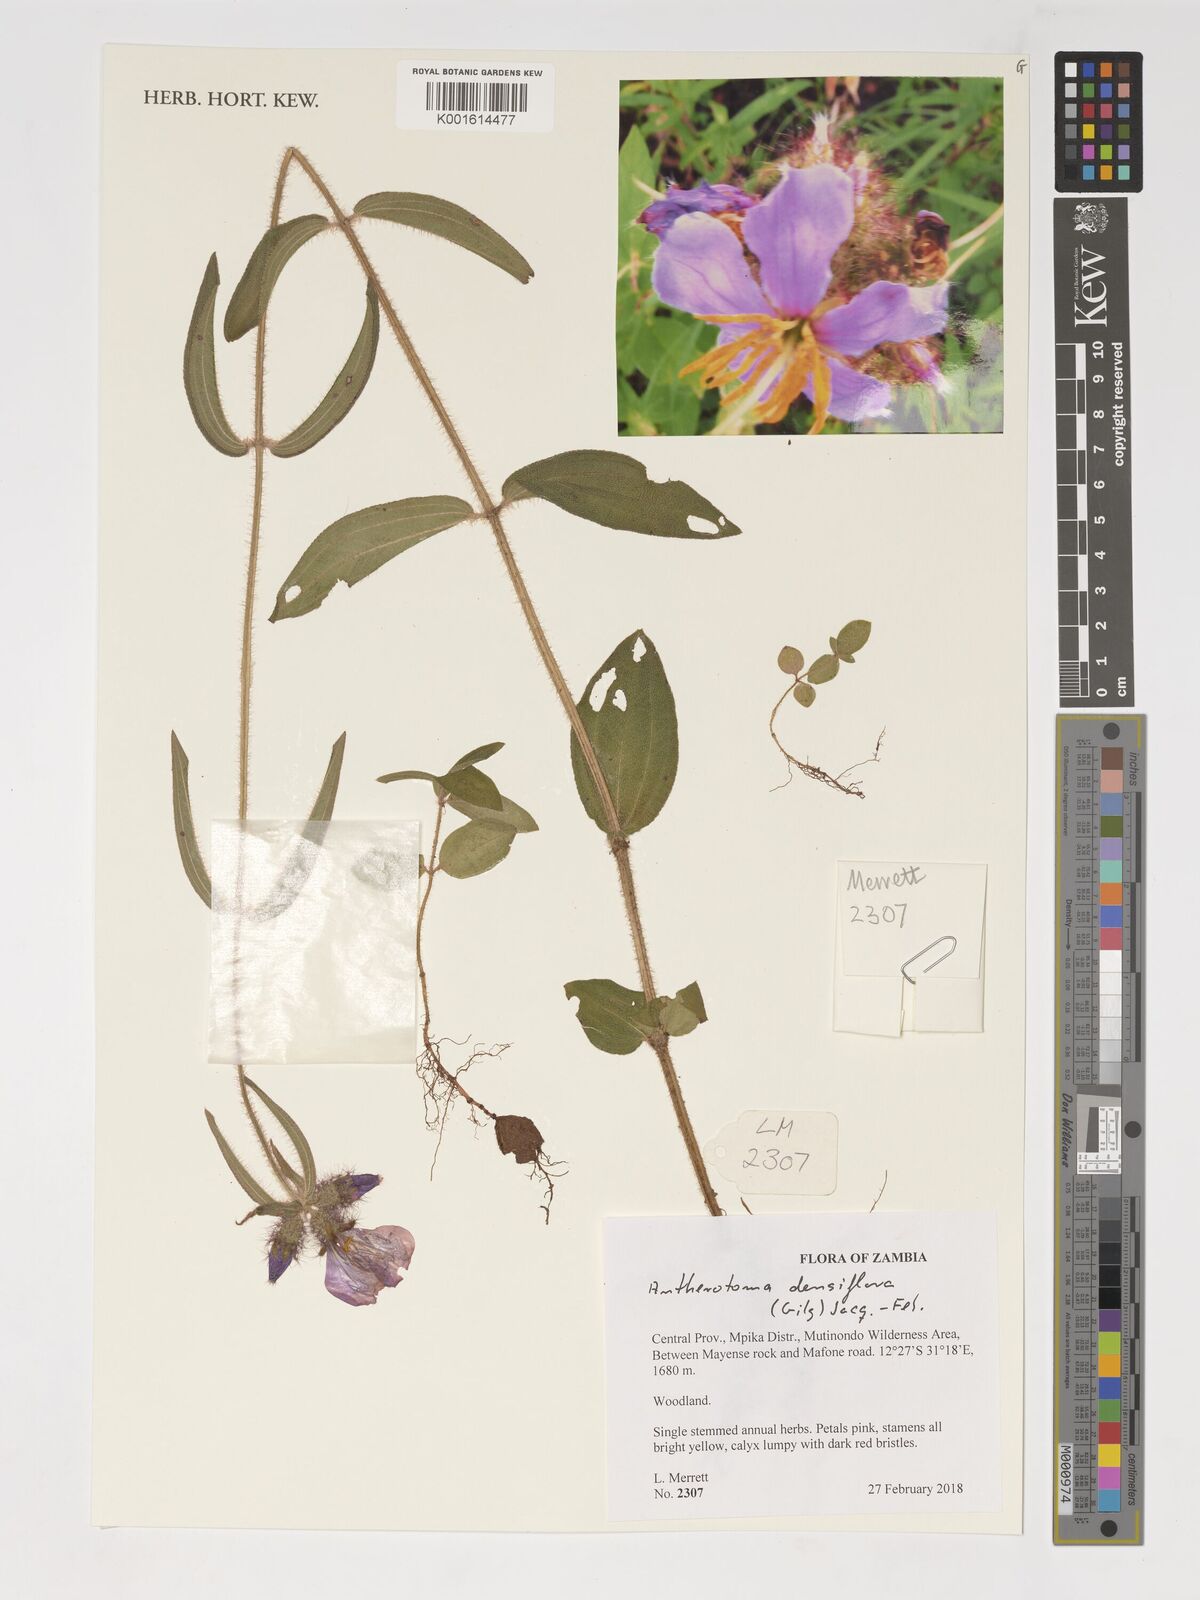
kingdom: Plantae
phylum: Tracheophyta
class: Magnoliopsida
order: Myrtales
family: Melastomataceae
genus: Antherotoma
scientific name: Antherotoma densiflora
